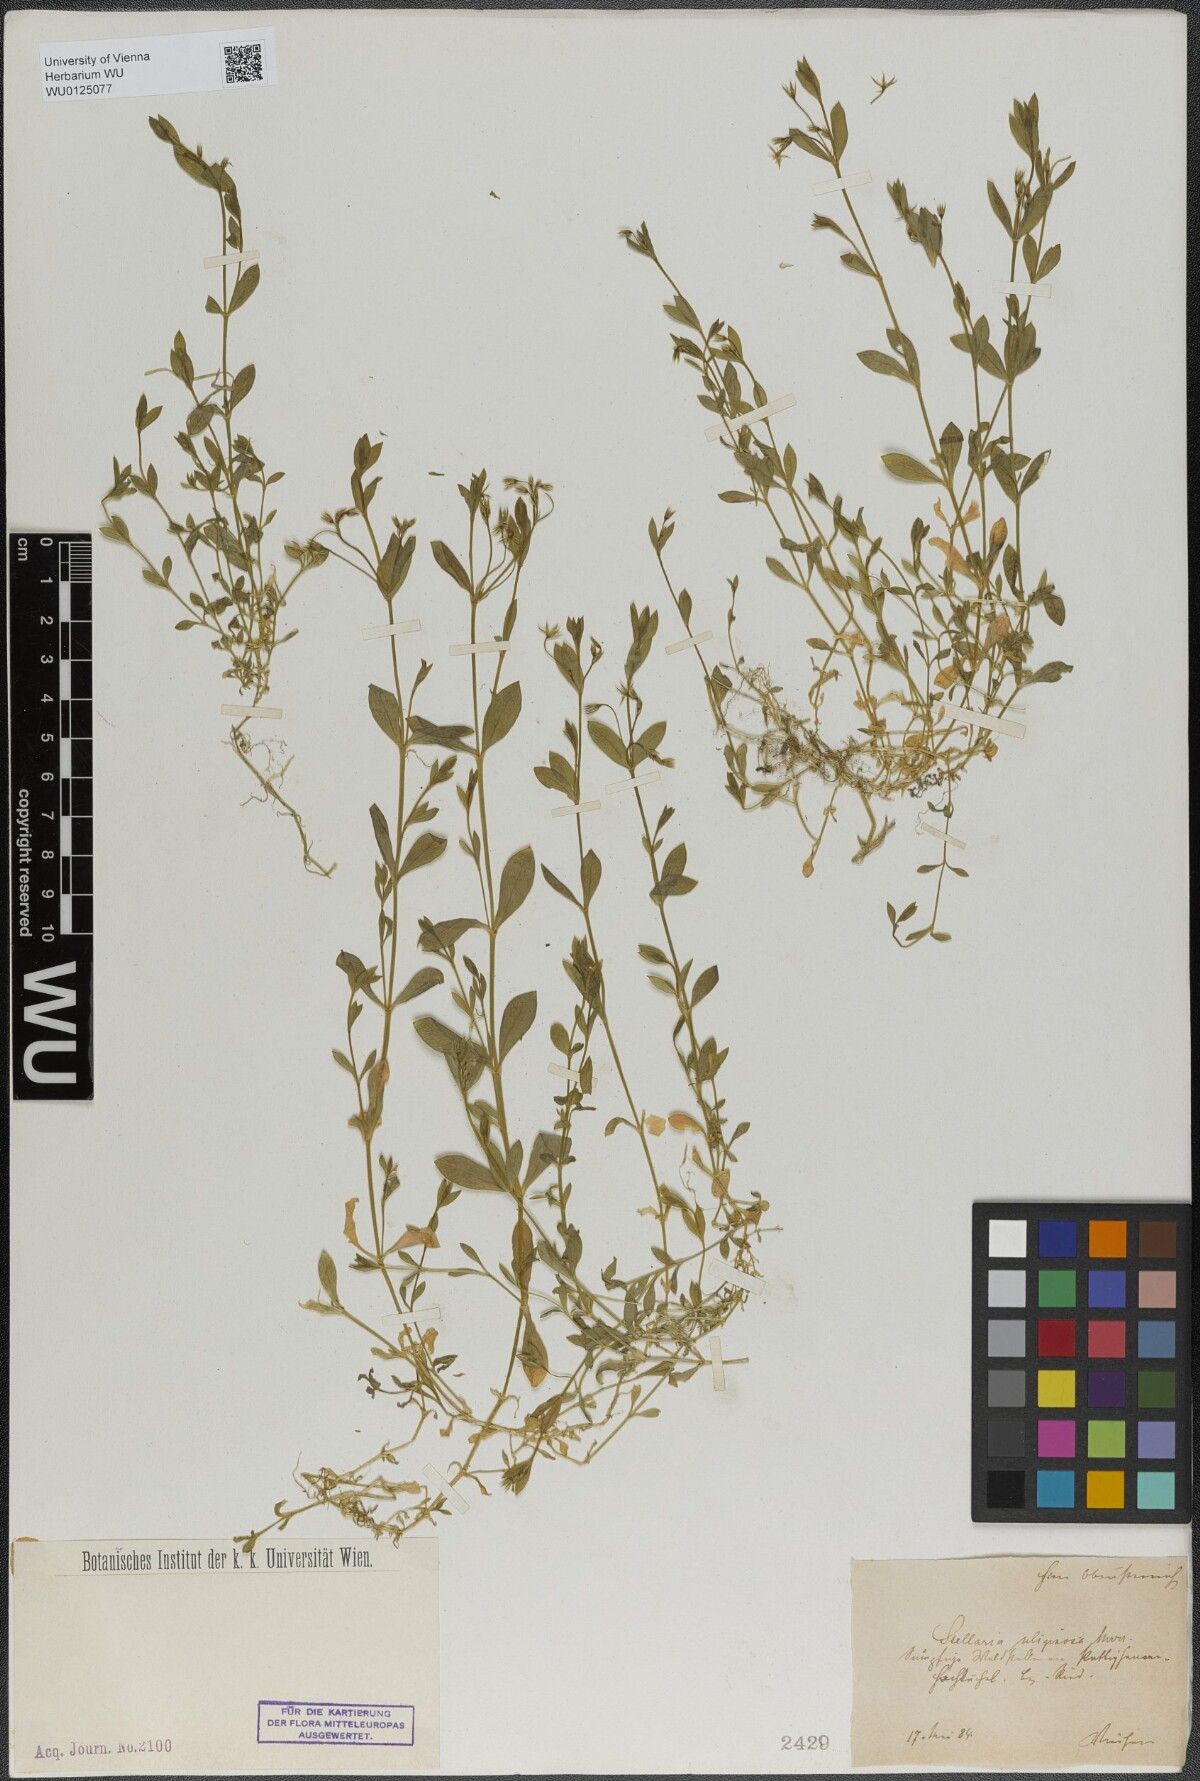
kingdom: Plantae
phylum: Tracheophyta
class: Magnoliopsida
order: Caryophyllales
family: Caryophyllaceae
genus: Stellaria
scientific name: Stellaria alsine
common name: Bog stitchwort
